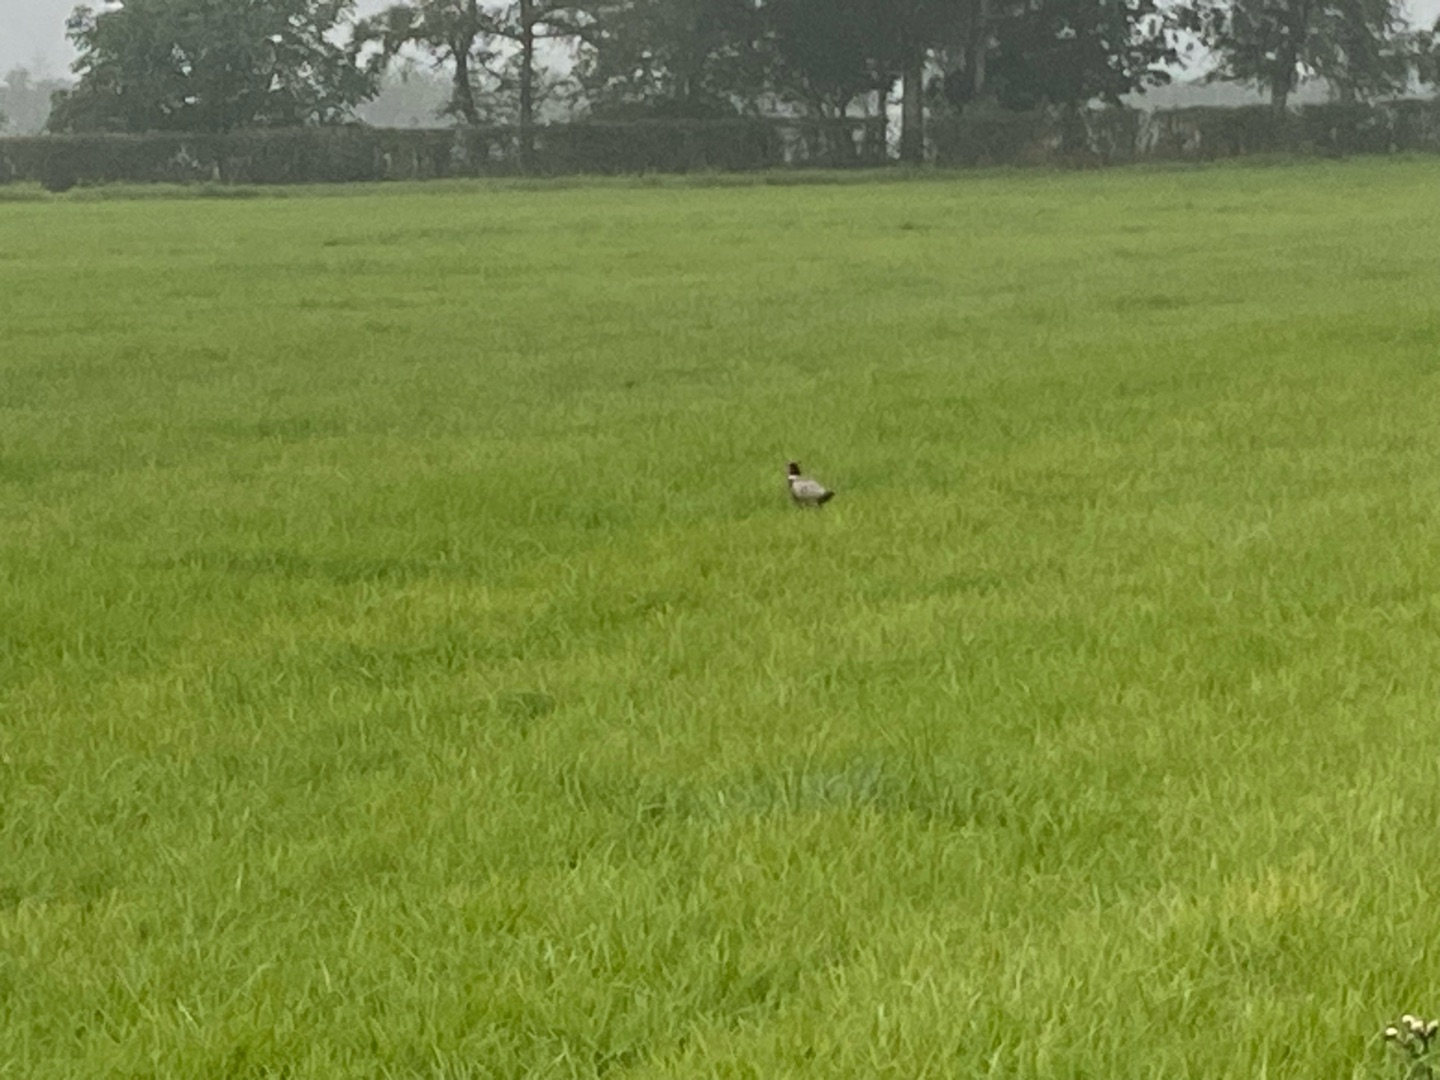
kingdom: Animalia
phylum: Chordata
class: Aves
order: Galliformes
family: Phasianidae
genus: Phasianus
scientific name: Phasianus colchicus
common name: Fasan
